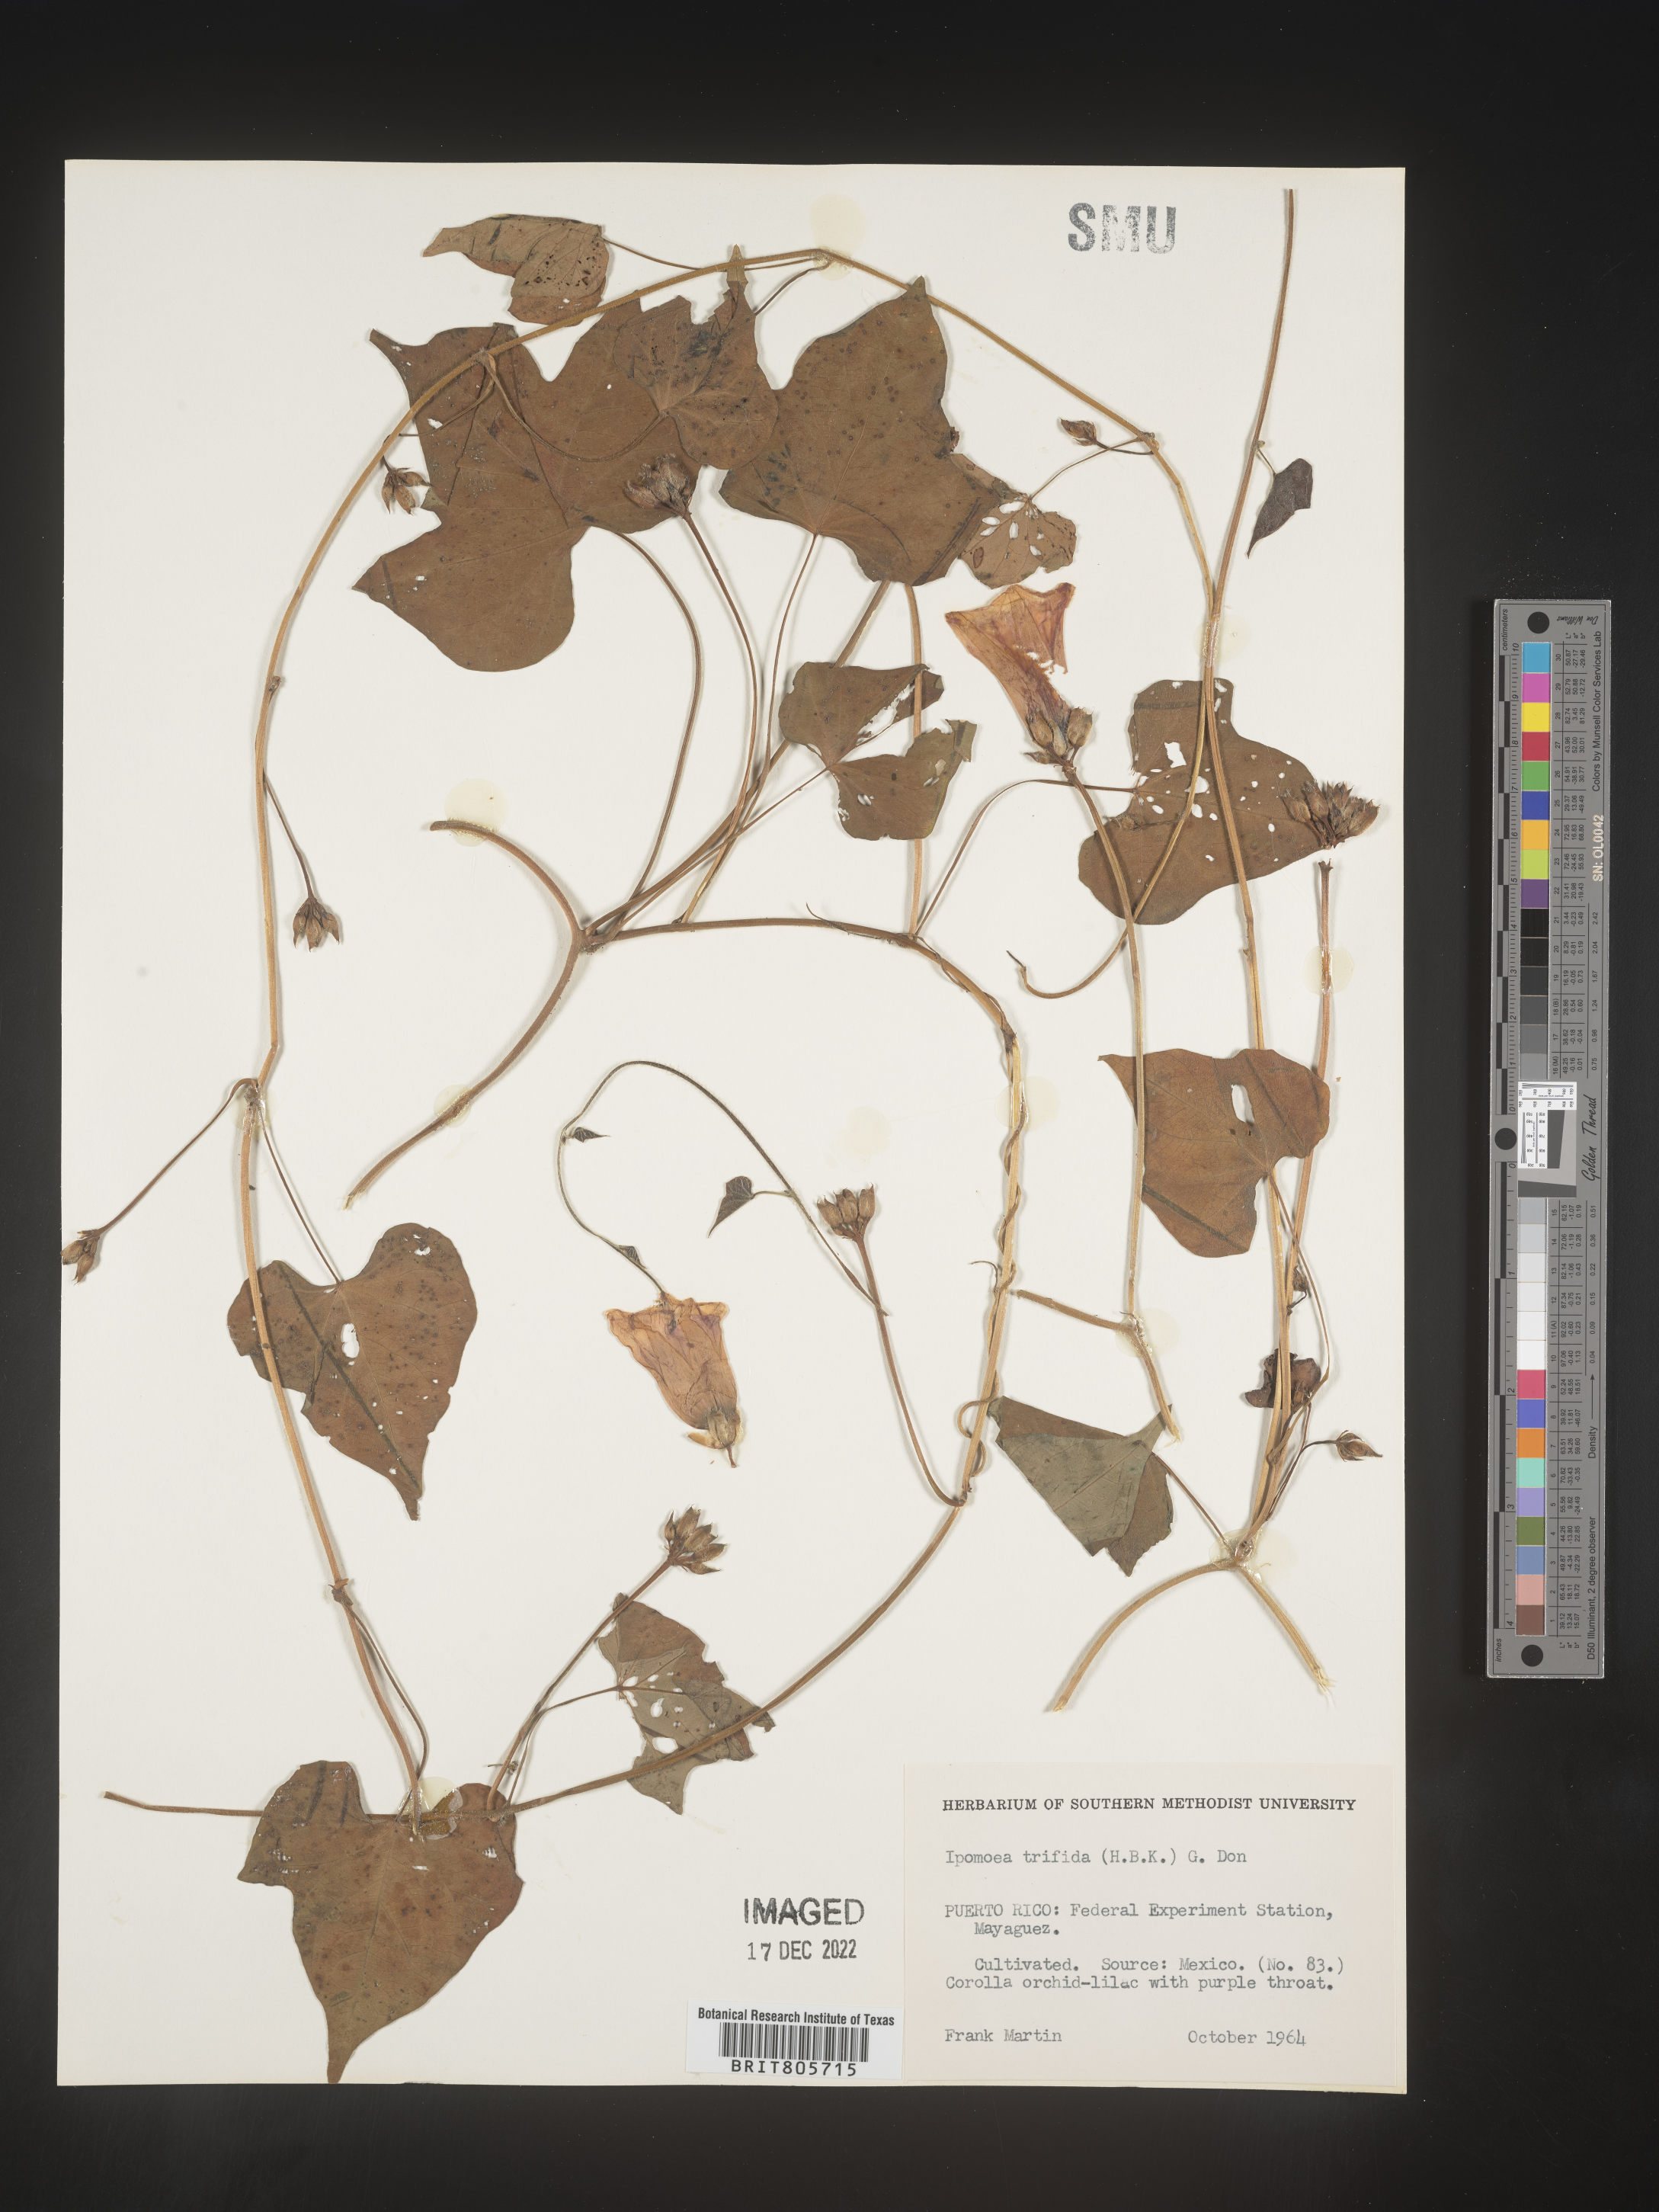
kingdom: Plantae
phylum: Tracheophyta
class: Magnoliopsida
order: Solanales
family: Convolvulaceae
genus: Ipomoea
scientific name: Ipomoea
